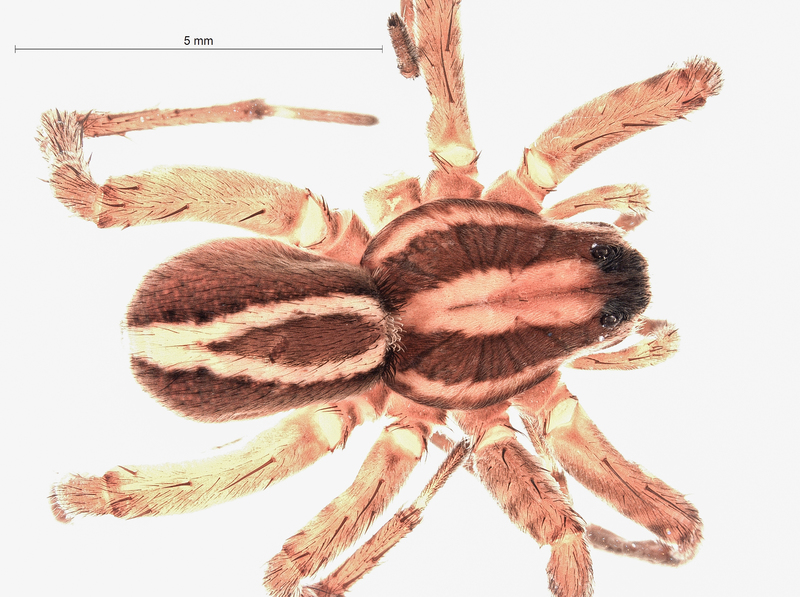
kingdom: Animalia
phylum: Arthropoda
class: Arachnida
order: Araneae
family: Lycosidae
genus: Alopecosa
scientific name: Alopecosa cuneata
